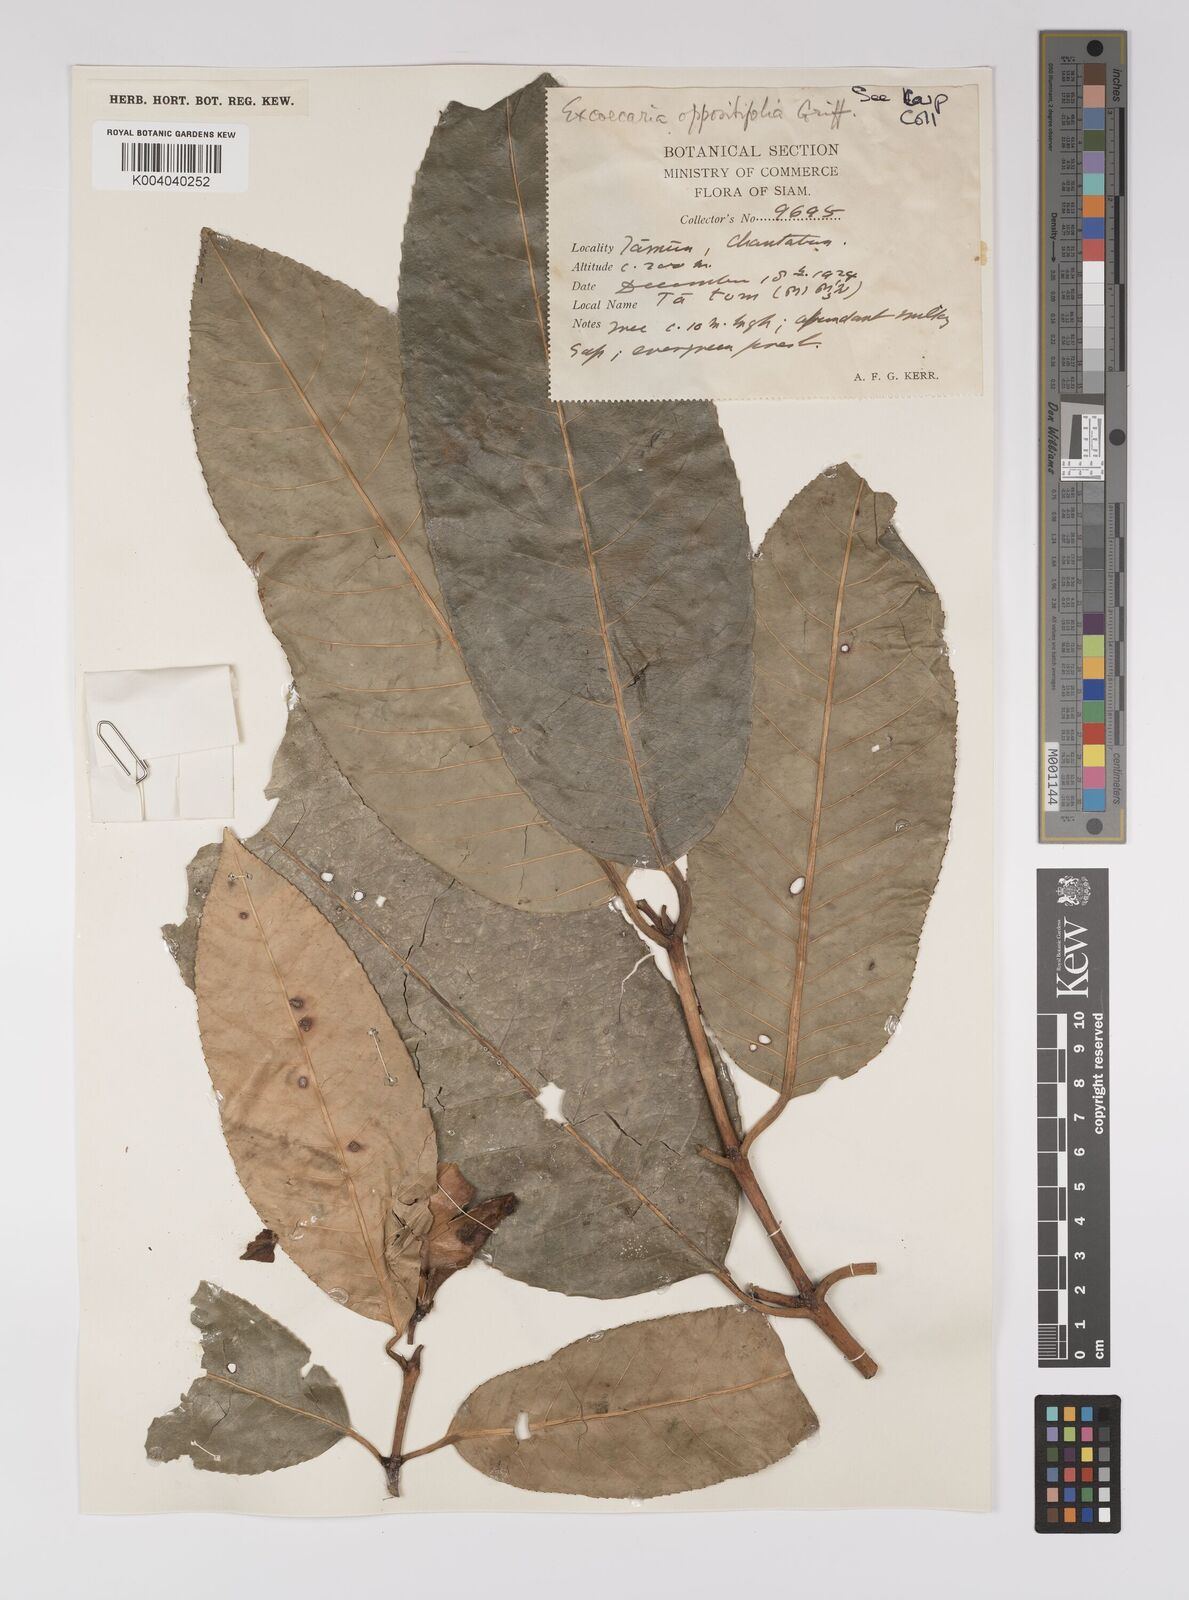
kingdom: Plantae
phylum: Tracheophyta
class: Magnoliopsida
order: Malpighiales
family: Euphorbiaceae
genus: Excoecaria
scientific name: Excoecaria oppositifolia
